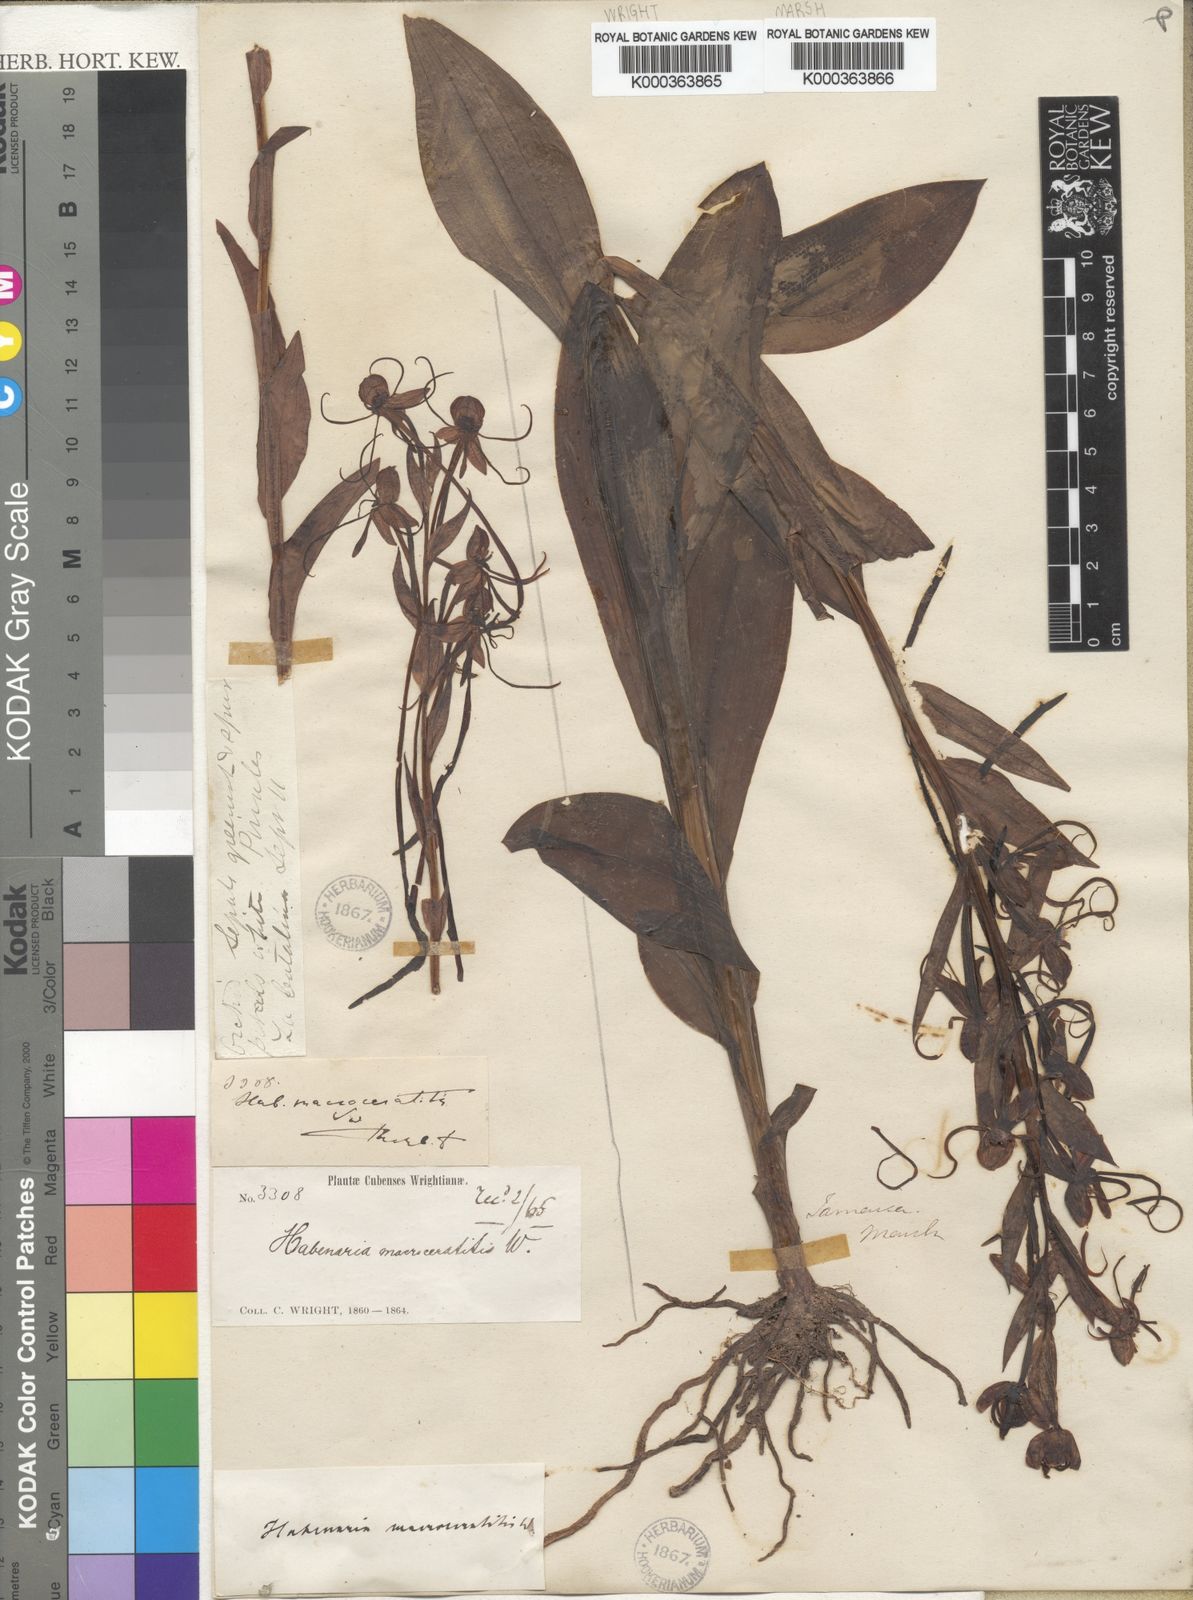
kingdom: Plantae
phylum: Tracheophyta
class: Liliopsida
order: Asparagales
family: Orchidaceae
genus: Habenaria
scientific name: Habenaria
